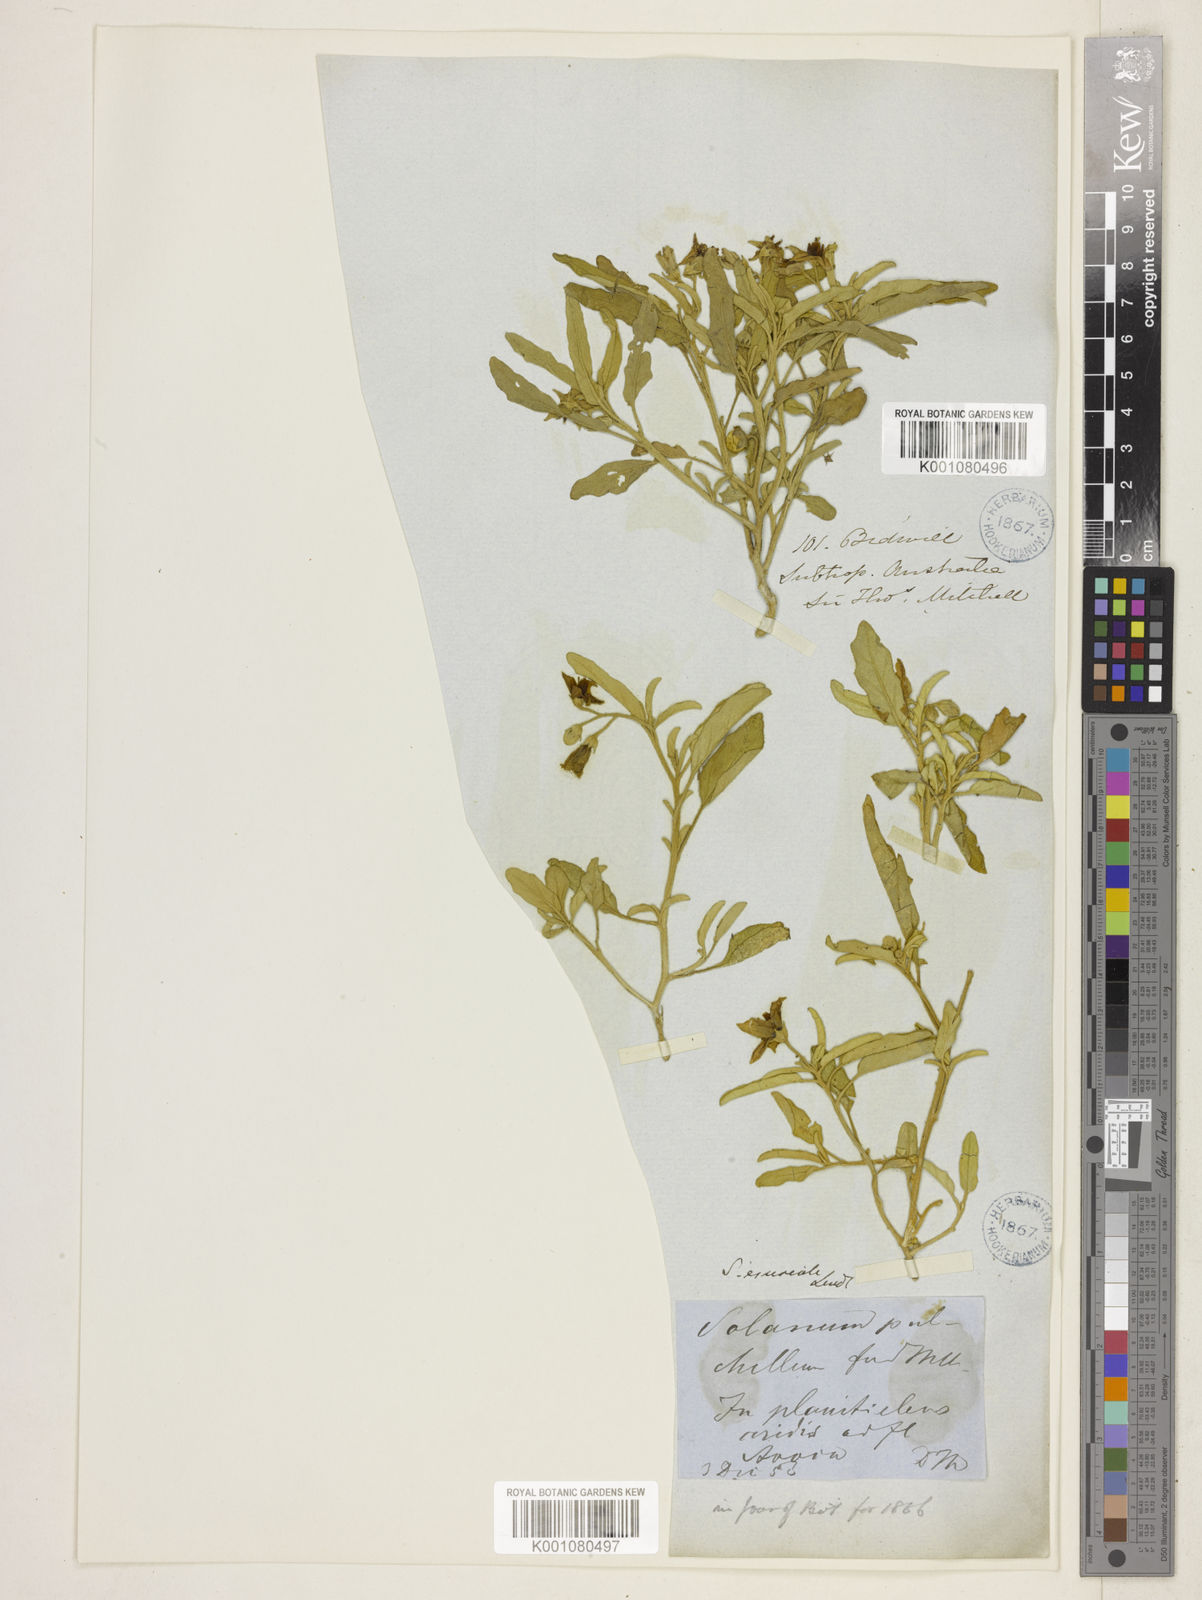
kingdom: Plantae
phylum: Tracheophyta
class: Magnoliopsida
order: Solanales
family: Solanaceae
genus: Solanum
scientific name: Solanum esuriale
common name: Wild tomato
